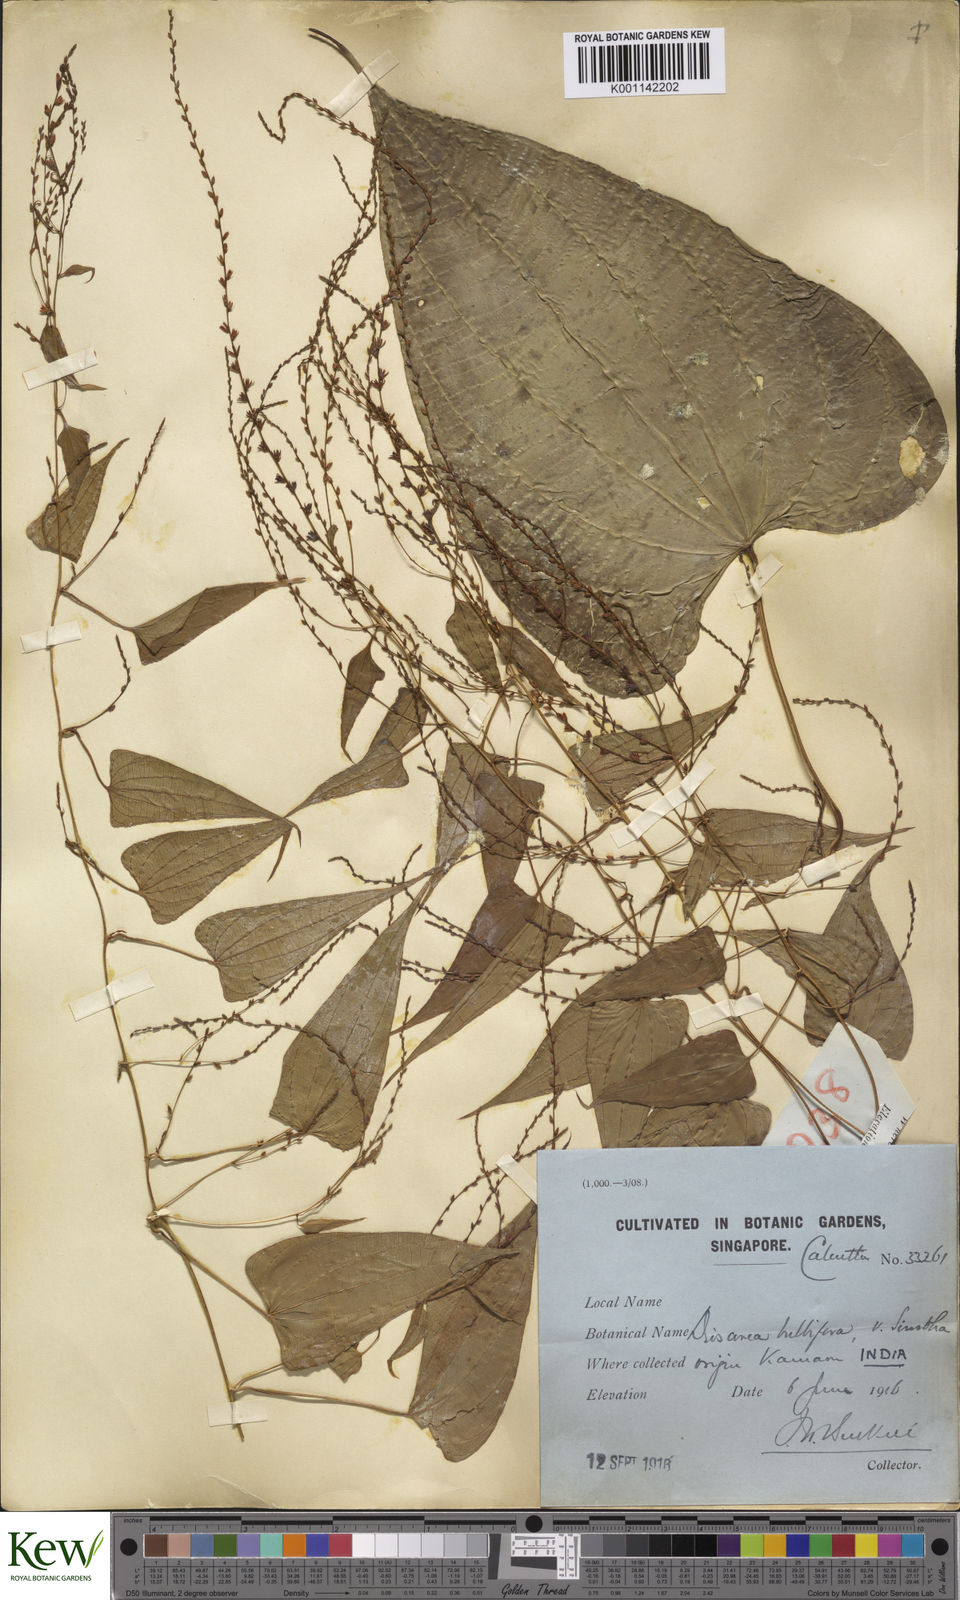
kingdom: Plantae
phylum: Tracheophyta
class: Liliopsida
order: Dioscoreales
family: Dioscoreaceae
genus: Dioscorea
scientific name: Dioscorea bulbifera
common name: Air yam
